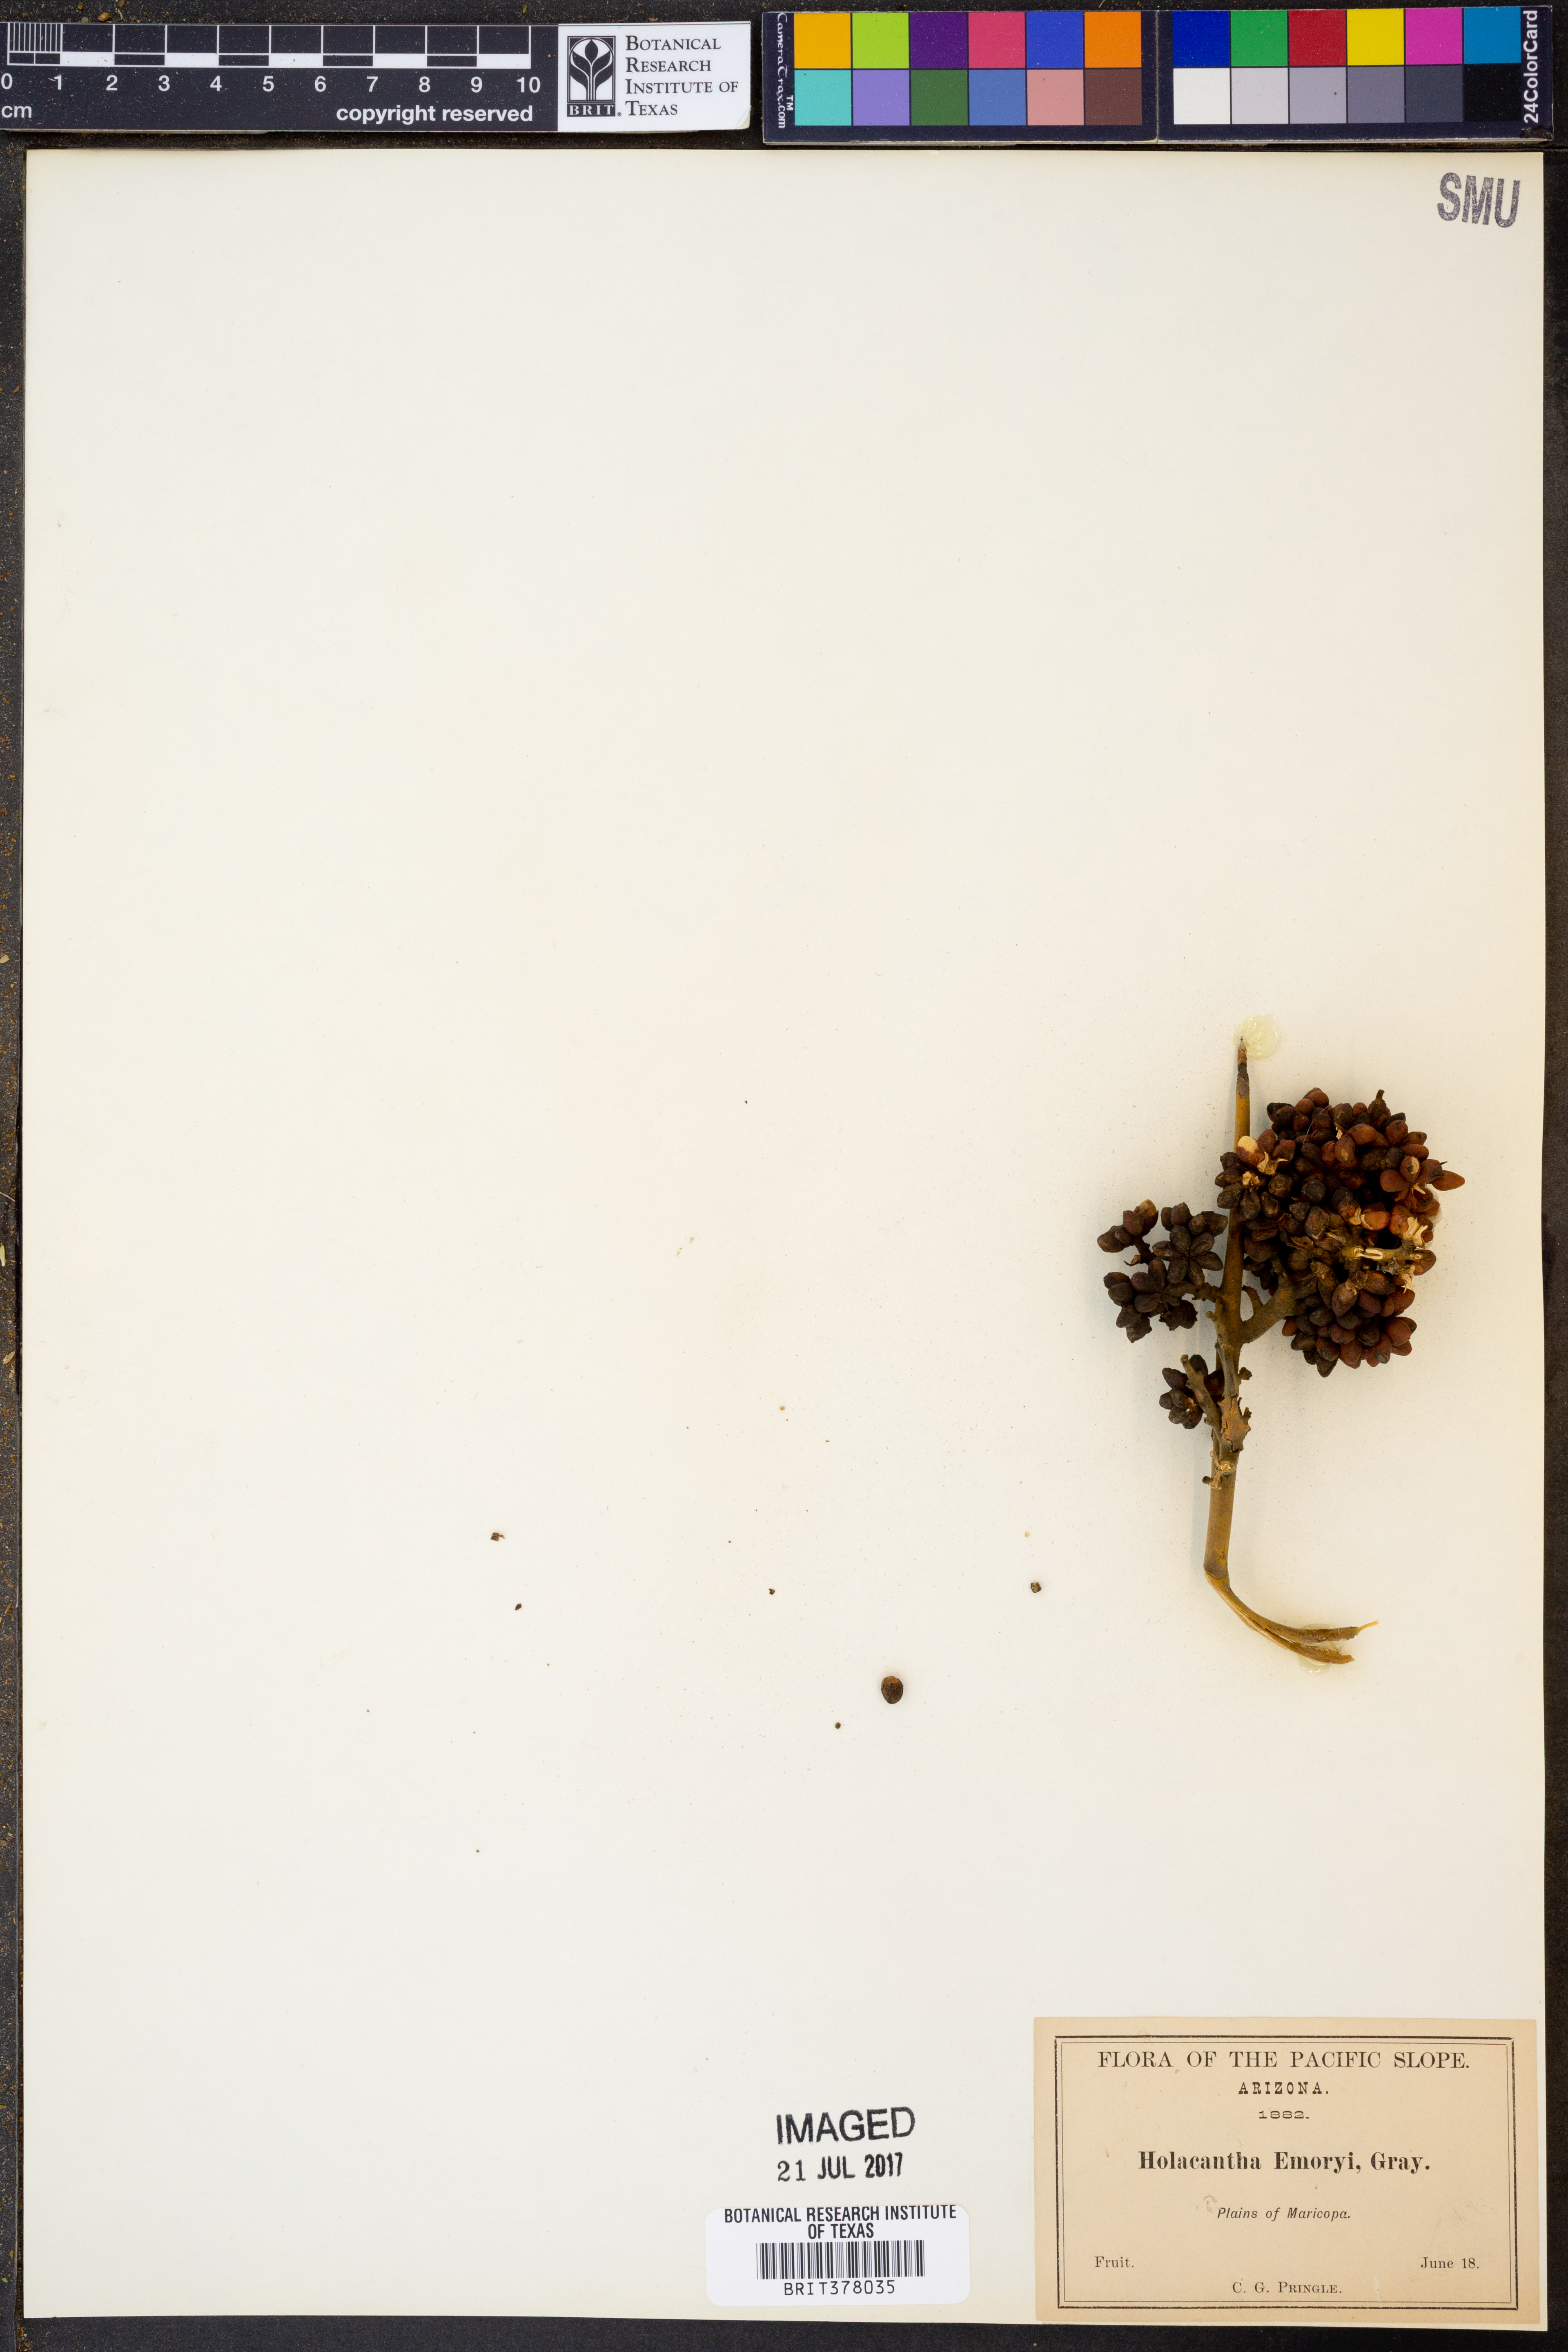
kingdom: Plantae
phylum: Tracheophyta
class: Magnoliopsida
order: Sapindales
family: Simaroubaceae
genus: Holacantha
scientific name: Holacantha emoryi
